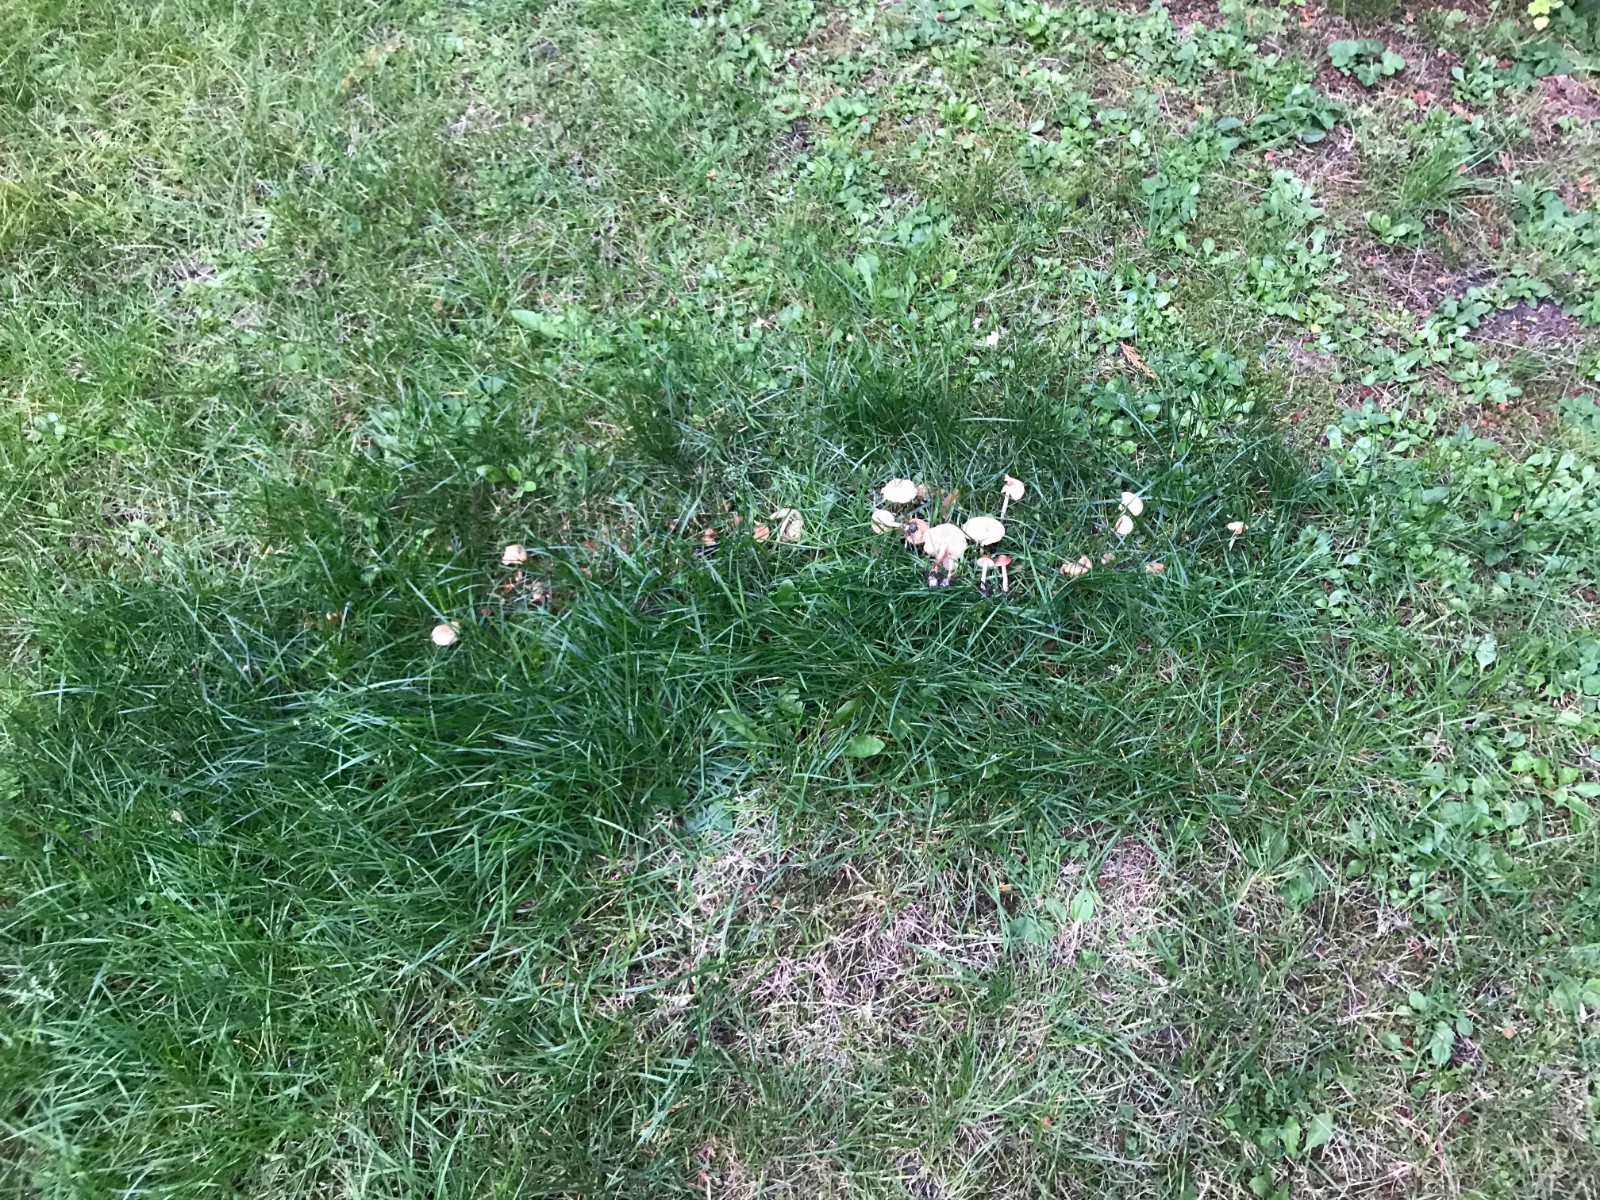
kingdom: Fungi
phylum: Basidiomycota
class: Agaricomycetes
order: Agaricales
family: Marasmiaceae
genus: Marasmius
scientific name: Marasmius oreades
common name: elledans-bruskhat
